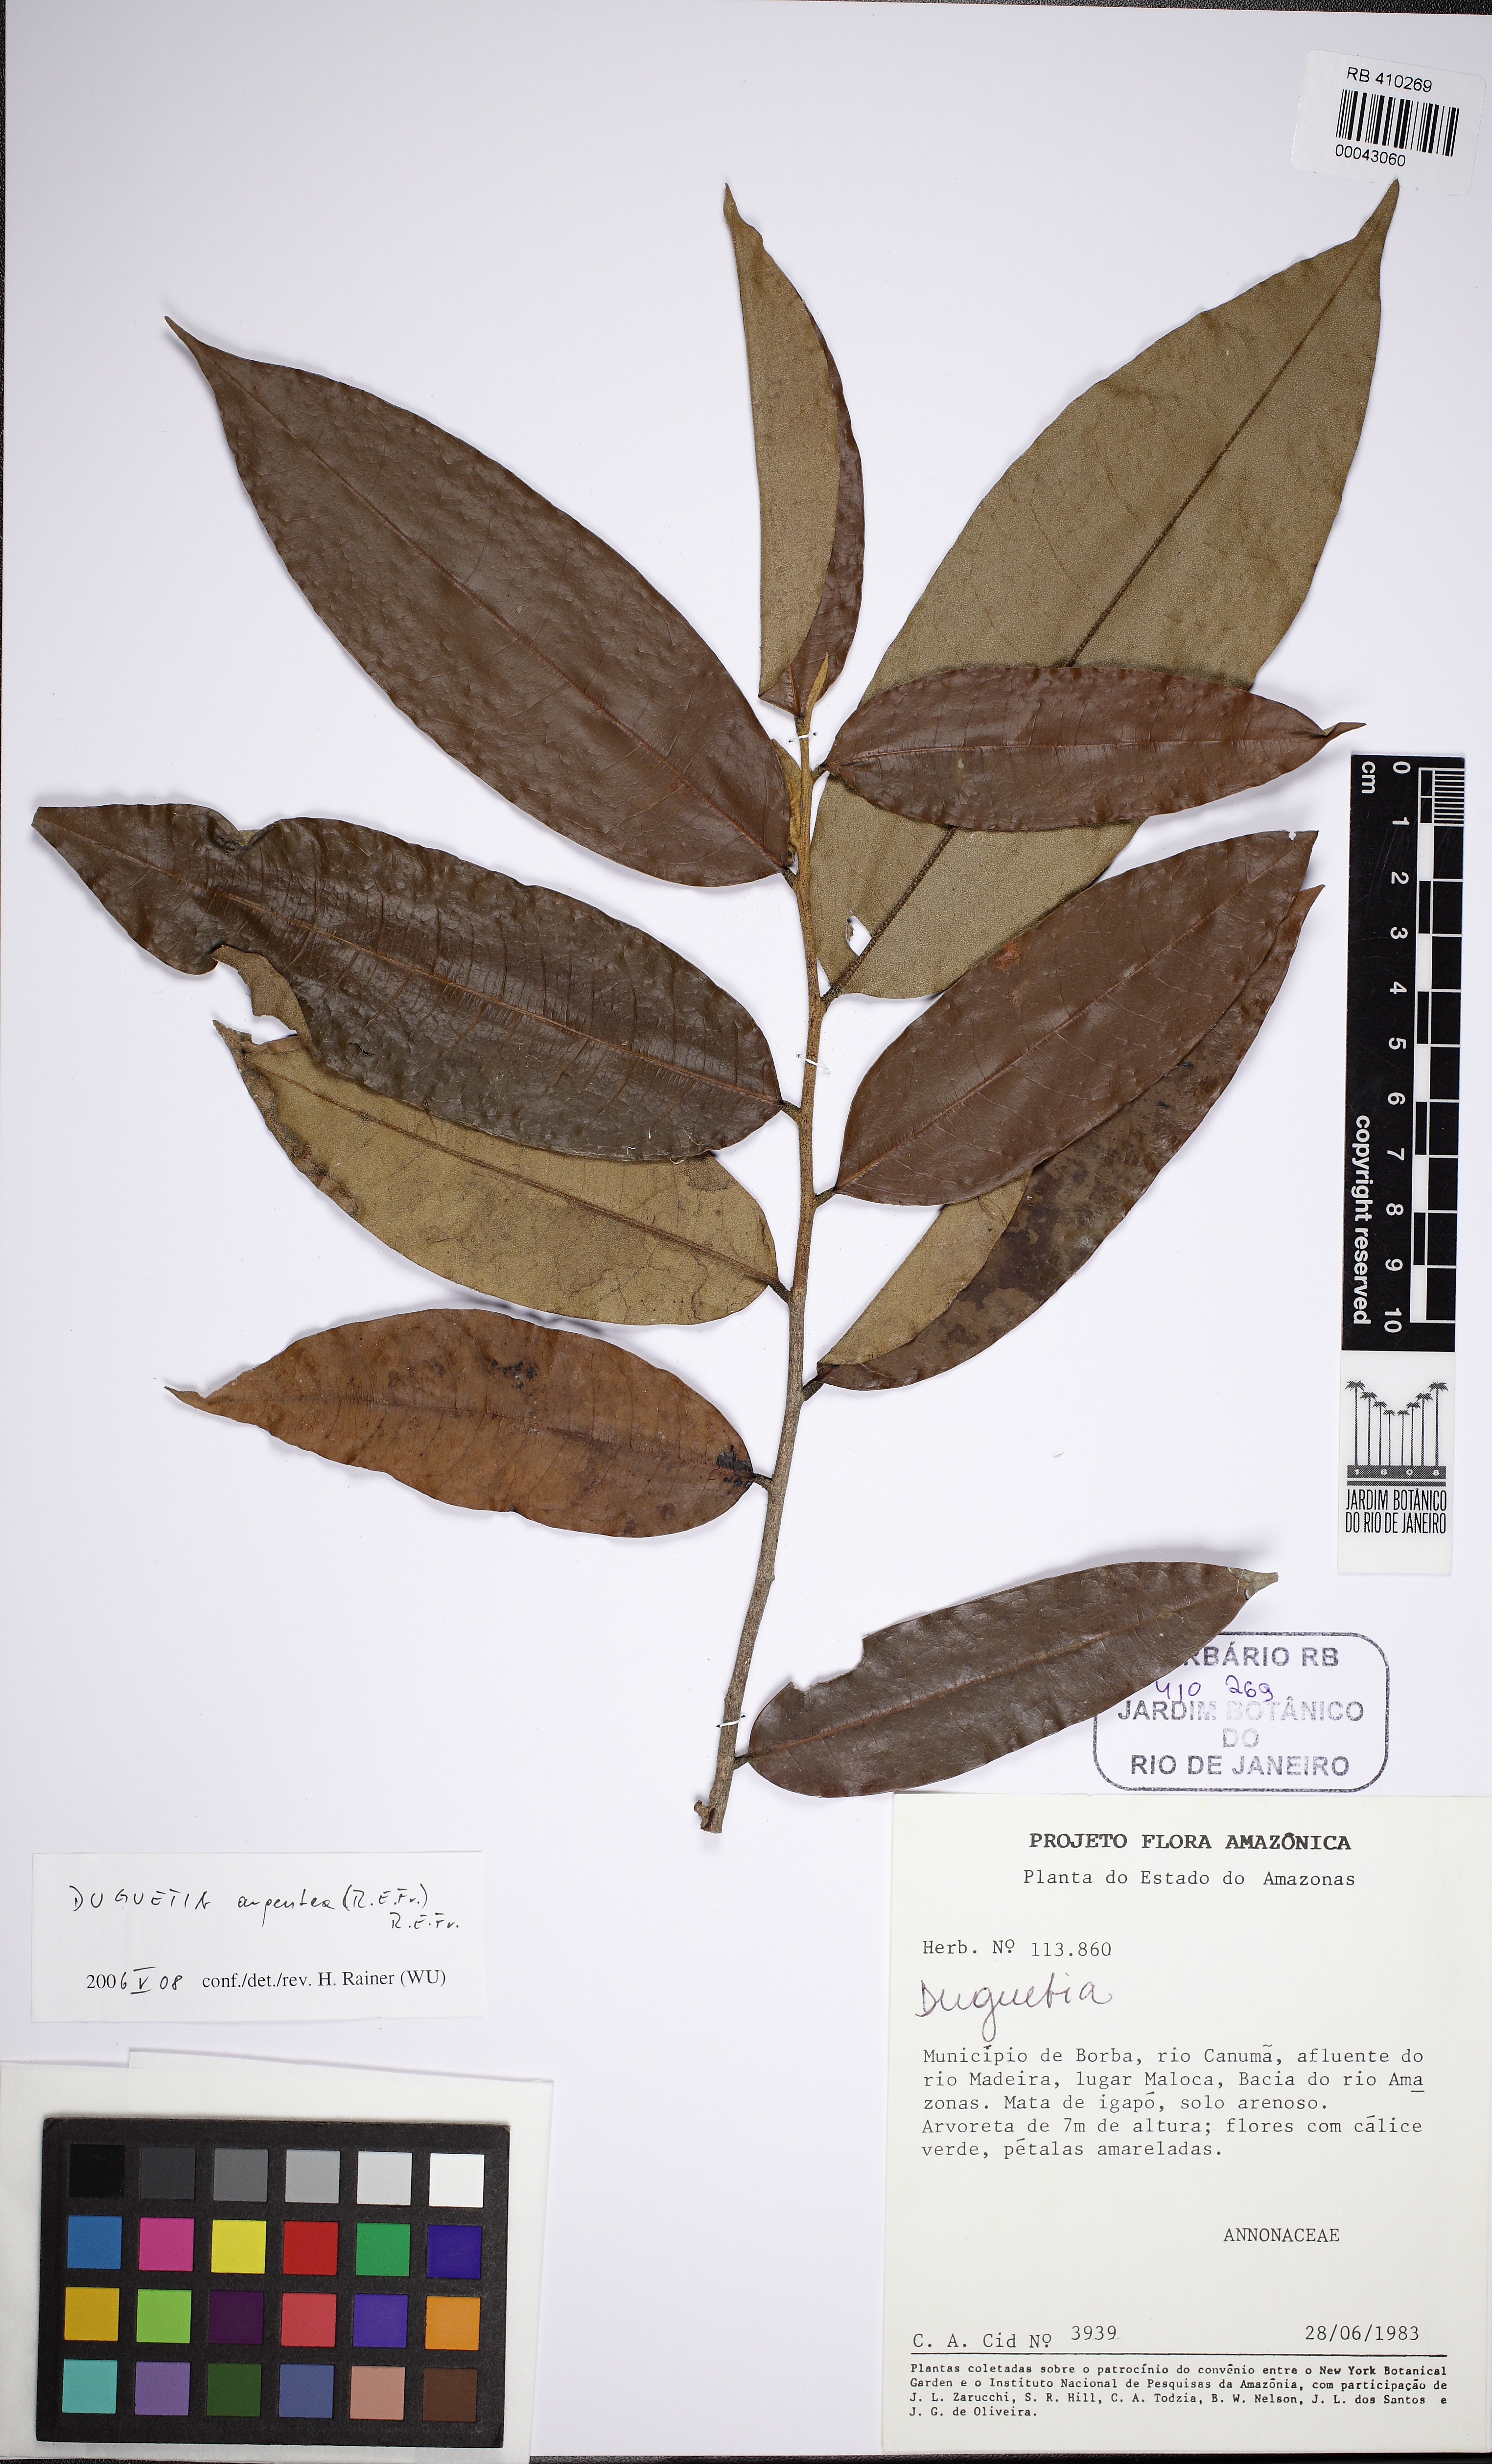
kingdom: Plantae
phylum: Tracheophyta
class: Magnoliopsida
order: Magnoliales
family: Annonaceae
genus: Duguetia
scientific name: Duguetia argentea
